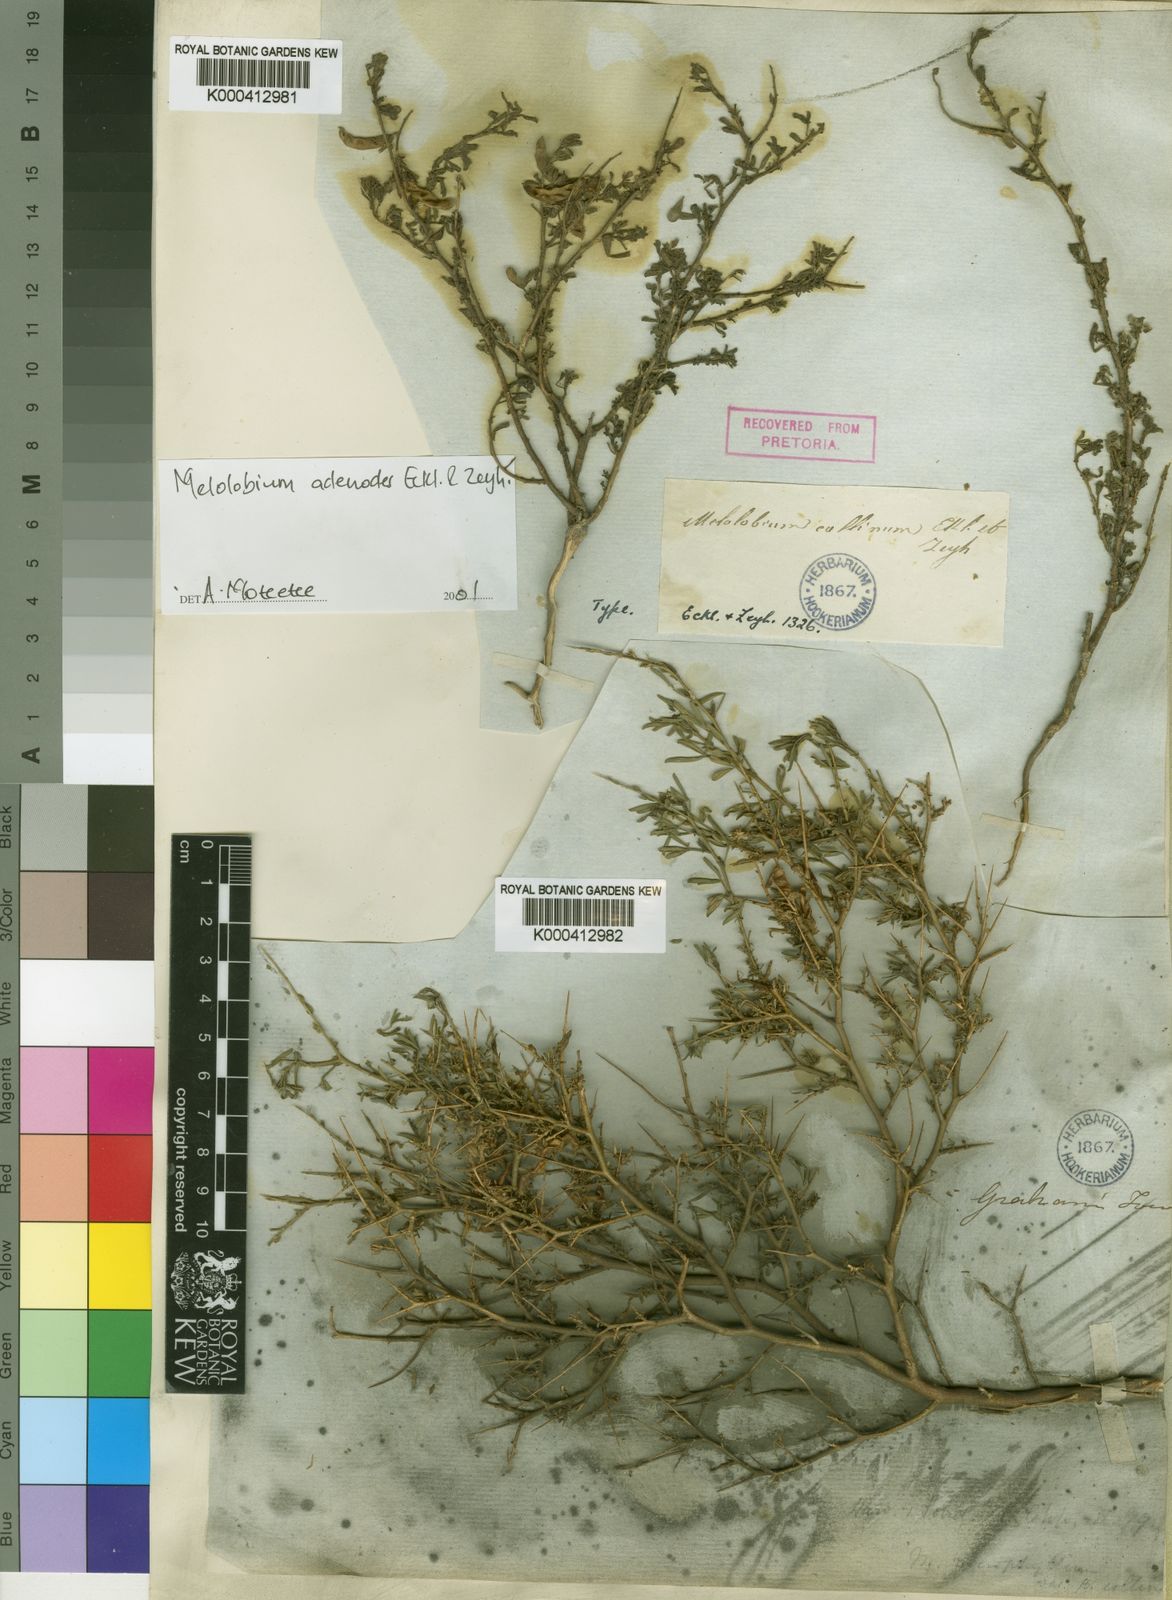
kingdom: Plantae
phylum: Tracheophyta
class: Magnoliopsida
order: Fabales
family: Fabaceae
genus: Melolobium
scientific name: Melolobium adenoides
